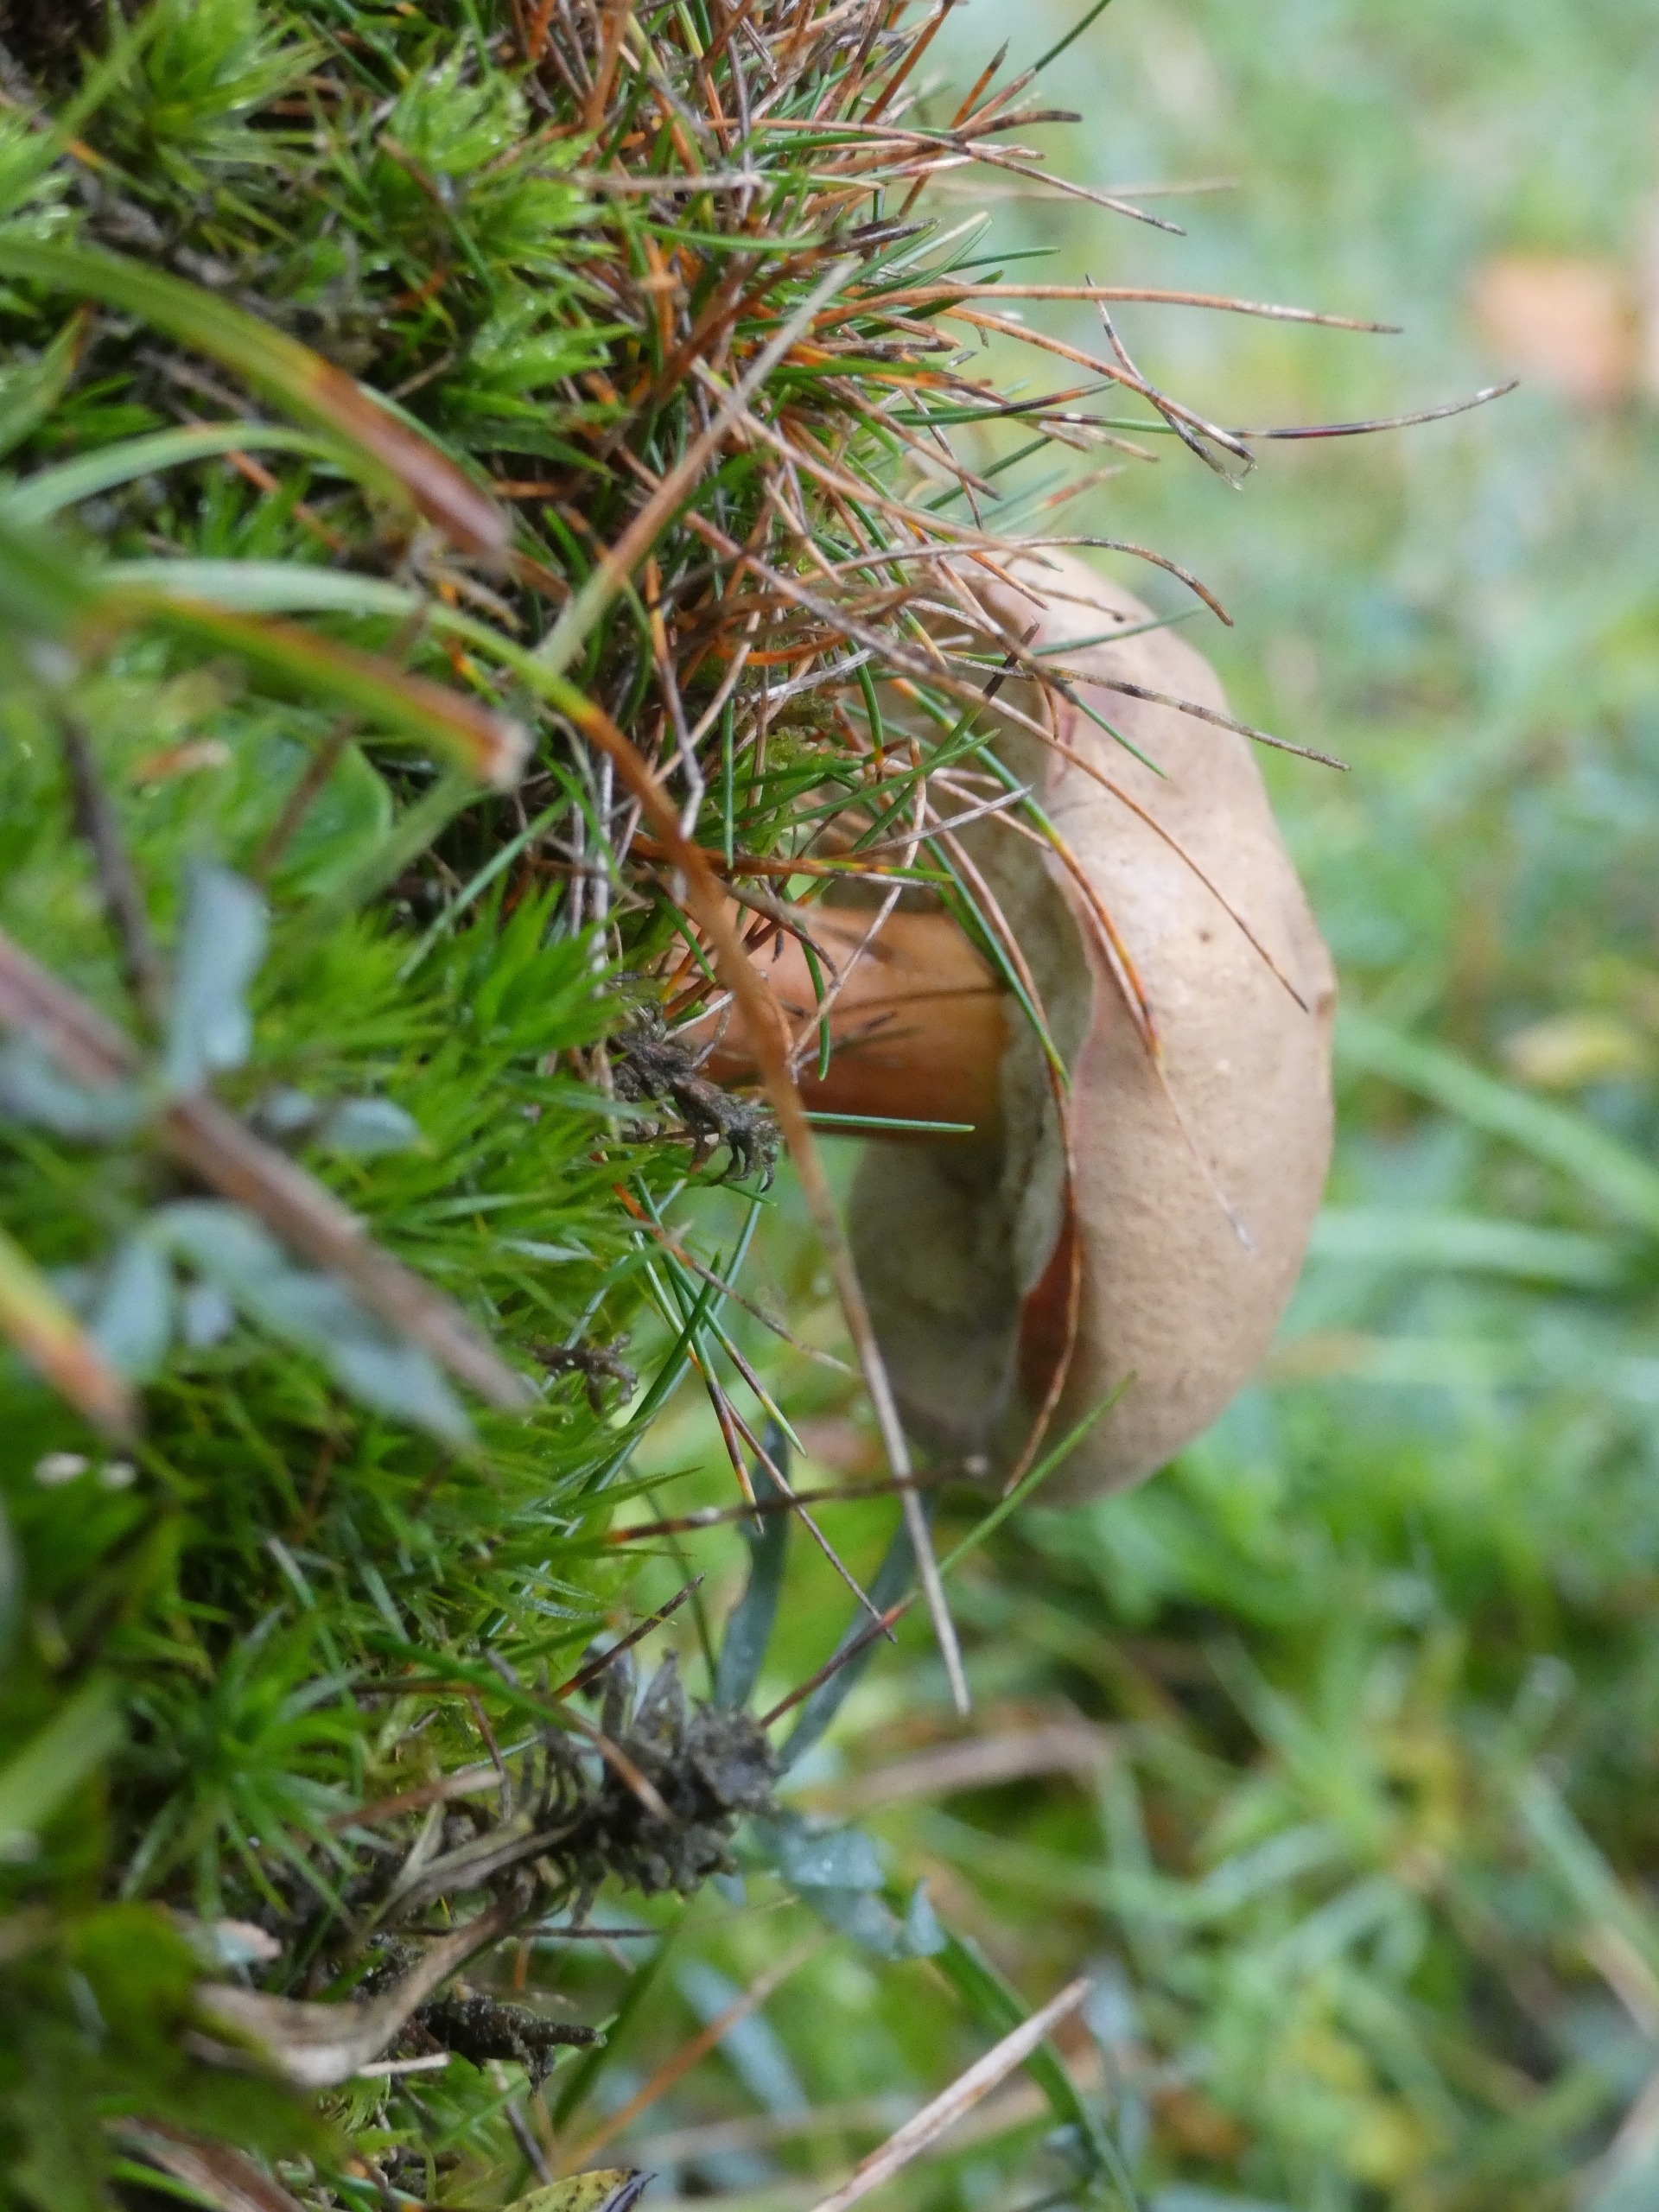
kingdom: Fungi
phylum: Basidiomycota
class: Agaricomycetes
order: Boletales
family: Boletaceae
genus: Xerocomus
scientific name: Xerocomus
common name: Filtrørhat
